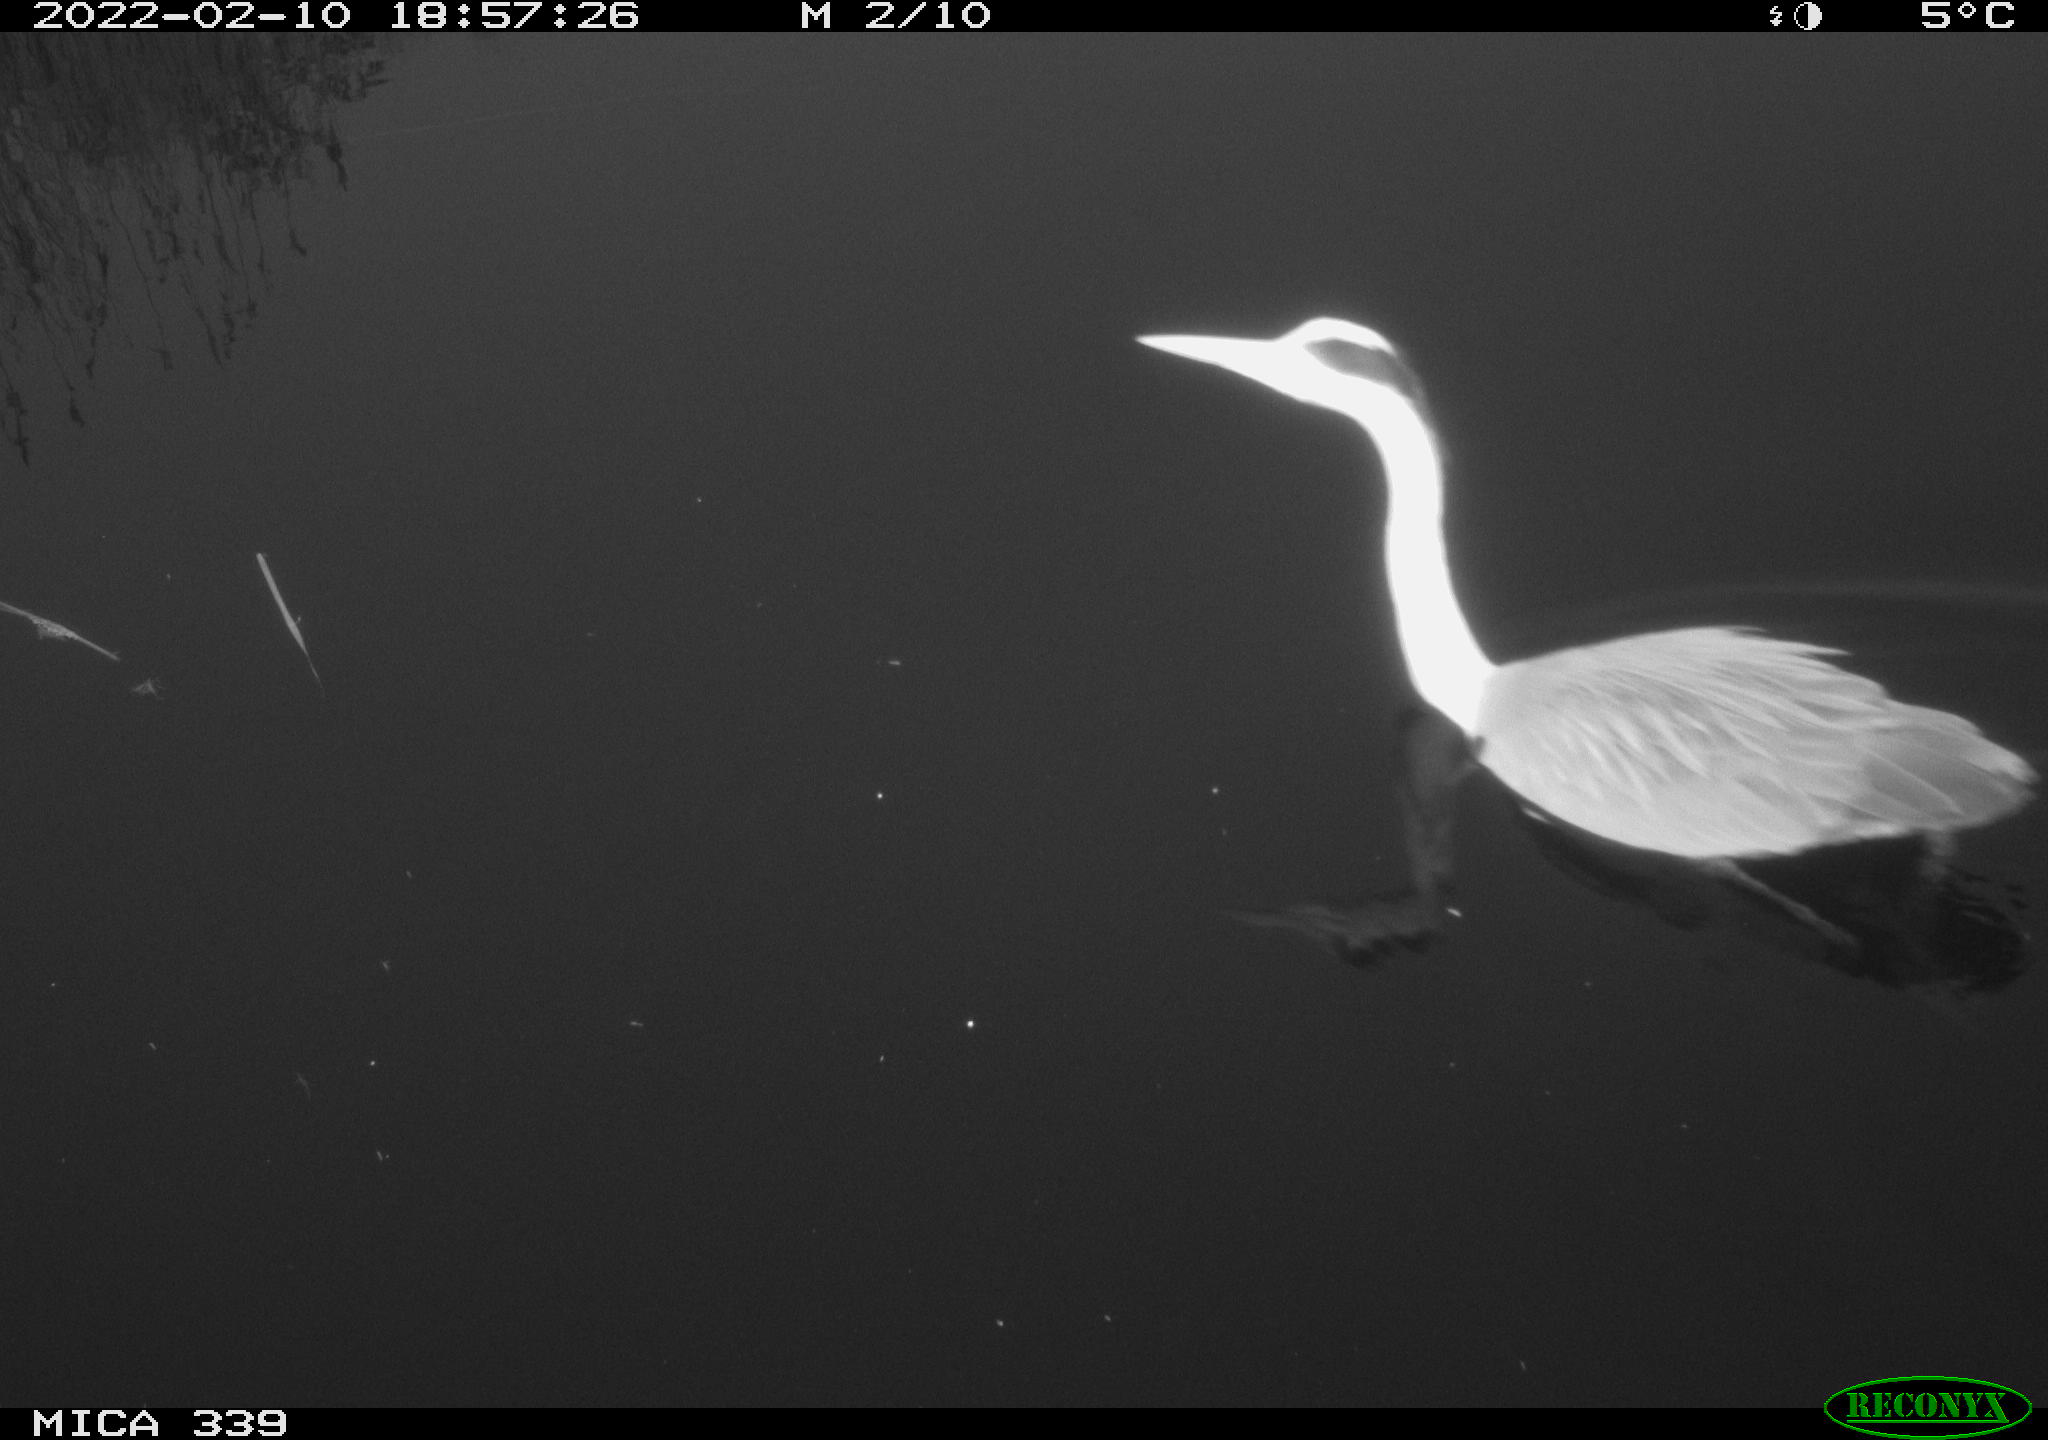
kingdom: Animalia
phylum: Chordata
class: Aves
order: Pelecaniformes
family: Ardeidae
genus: Ardea
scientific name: Ardea cinerea
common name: Grey heron
